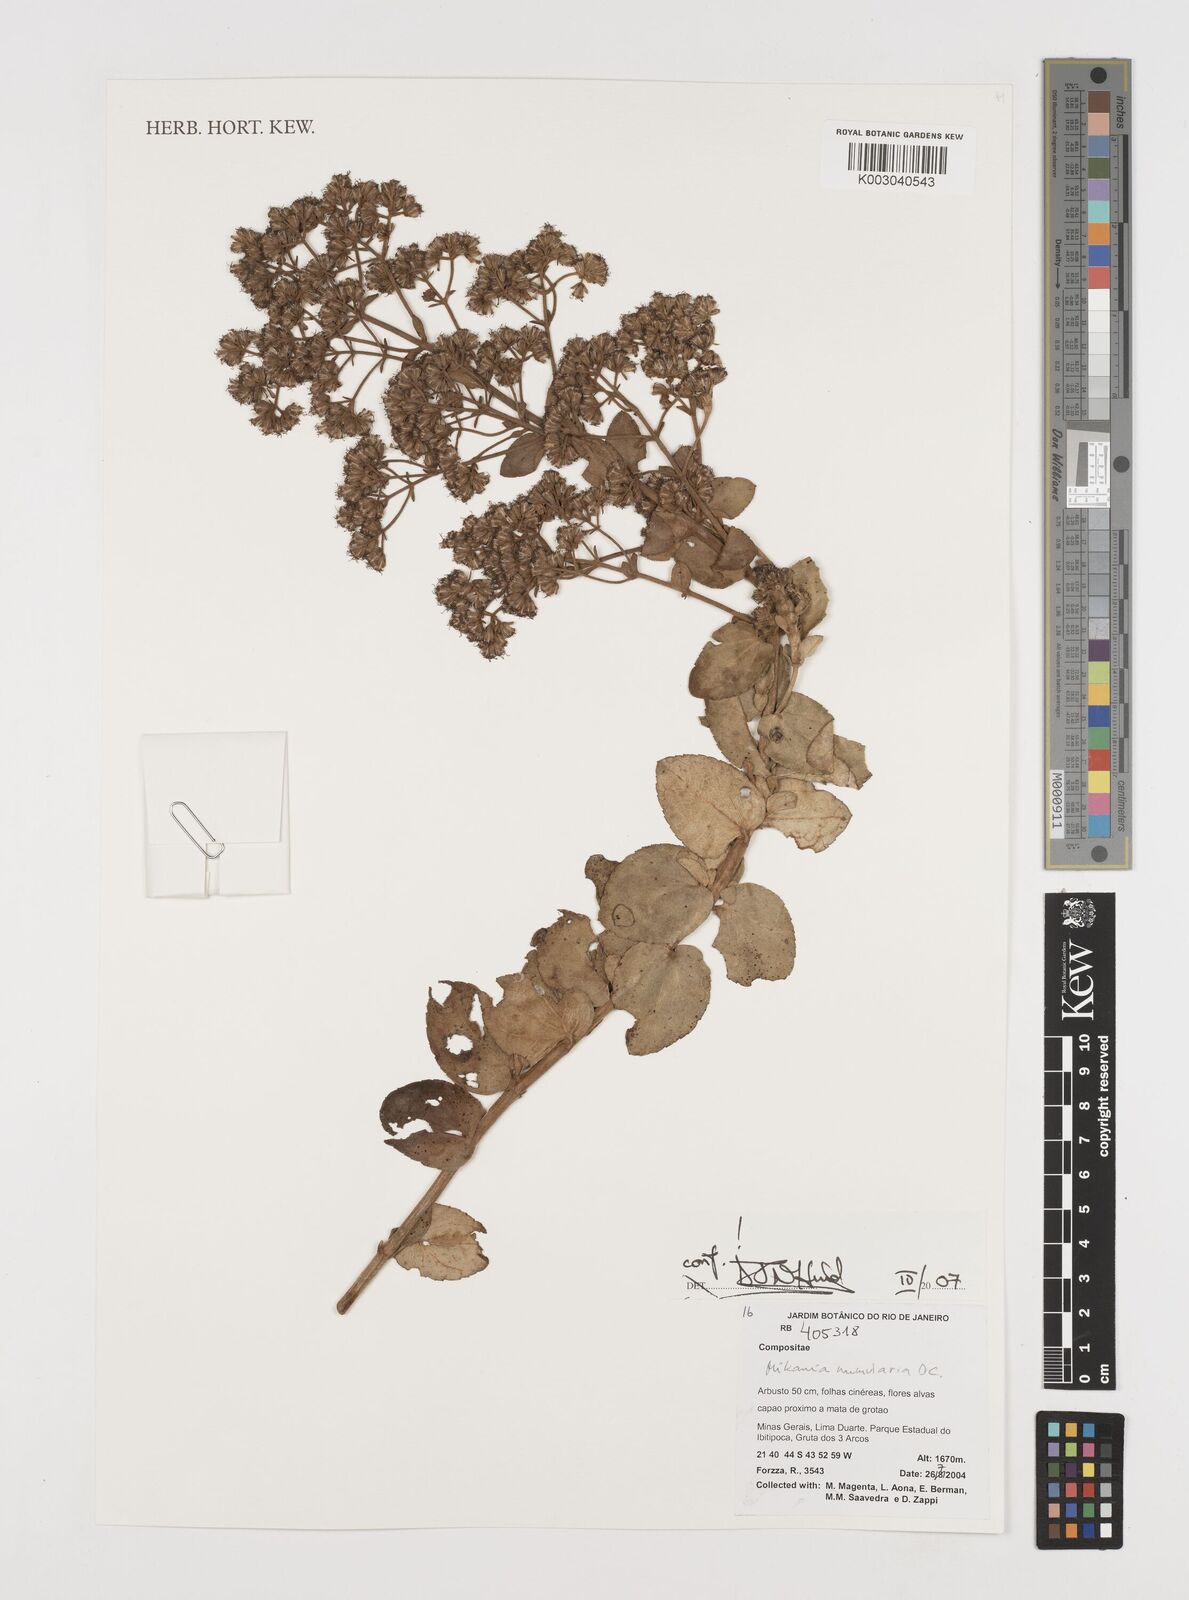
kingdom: Plantae
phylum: Tracheophyta
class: Magnoliopsida
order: Asterales
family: Asteraceae
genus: Mikania
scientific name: Mikania nummularia
